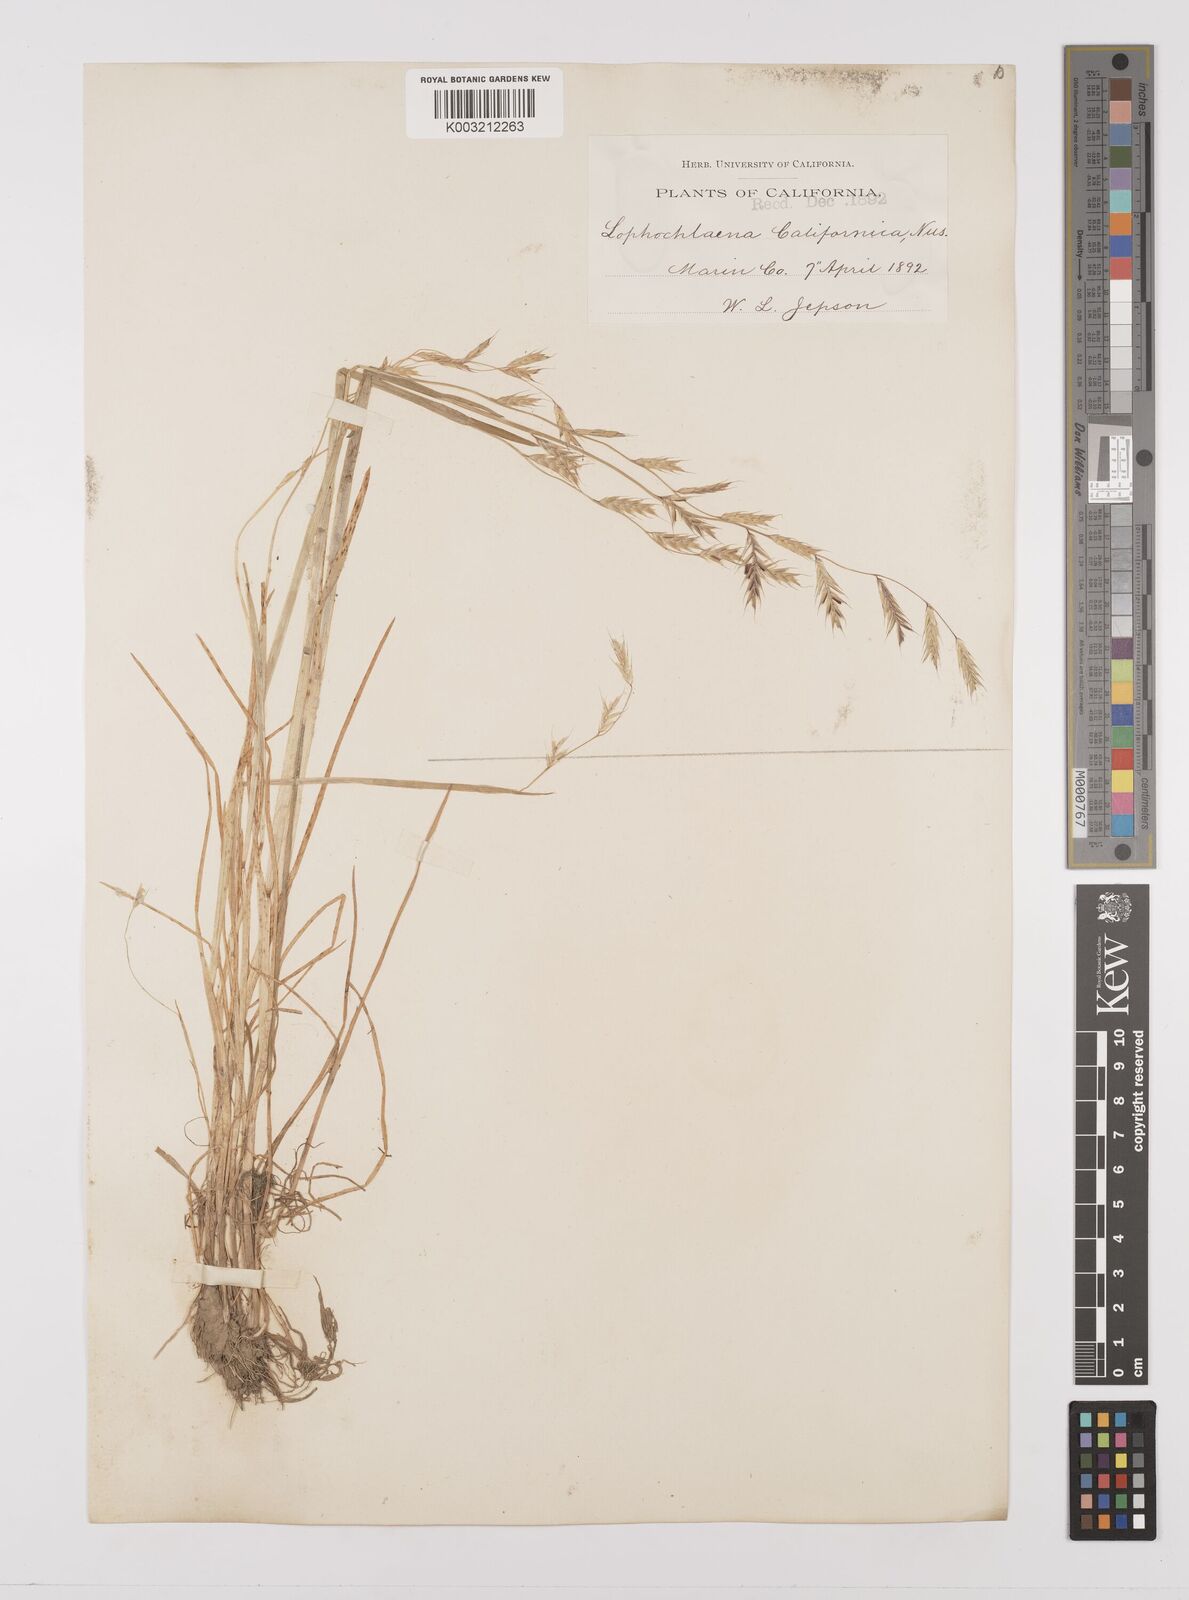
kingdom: Plantae
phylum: Tracheophyta
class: Liliopsida
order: Poales
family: Poaceae
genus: Pleuropogon
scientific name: Pleuropogon californicus
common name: California semaphore grass
